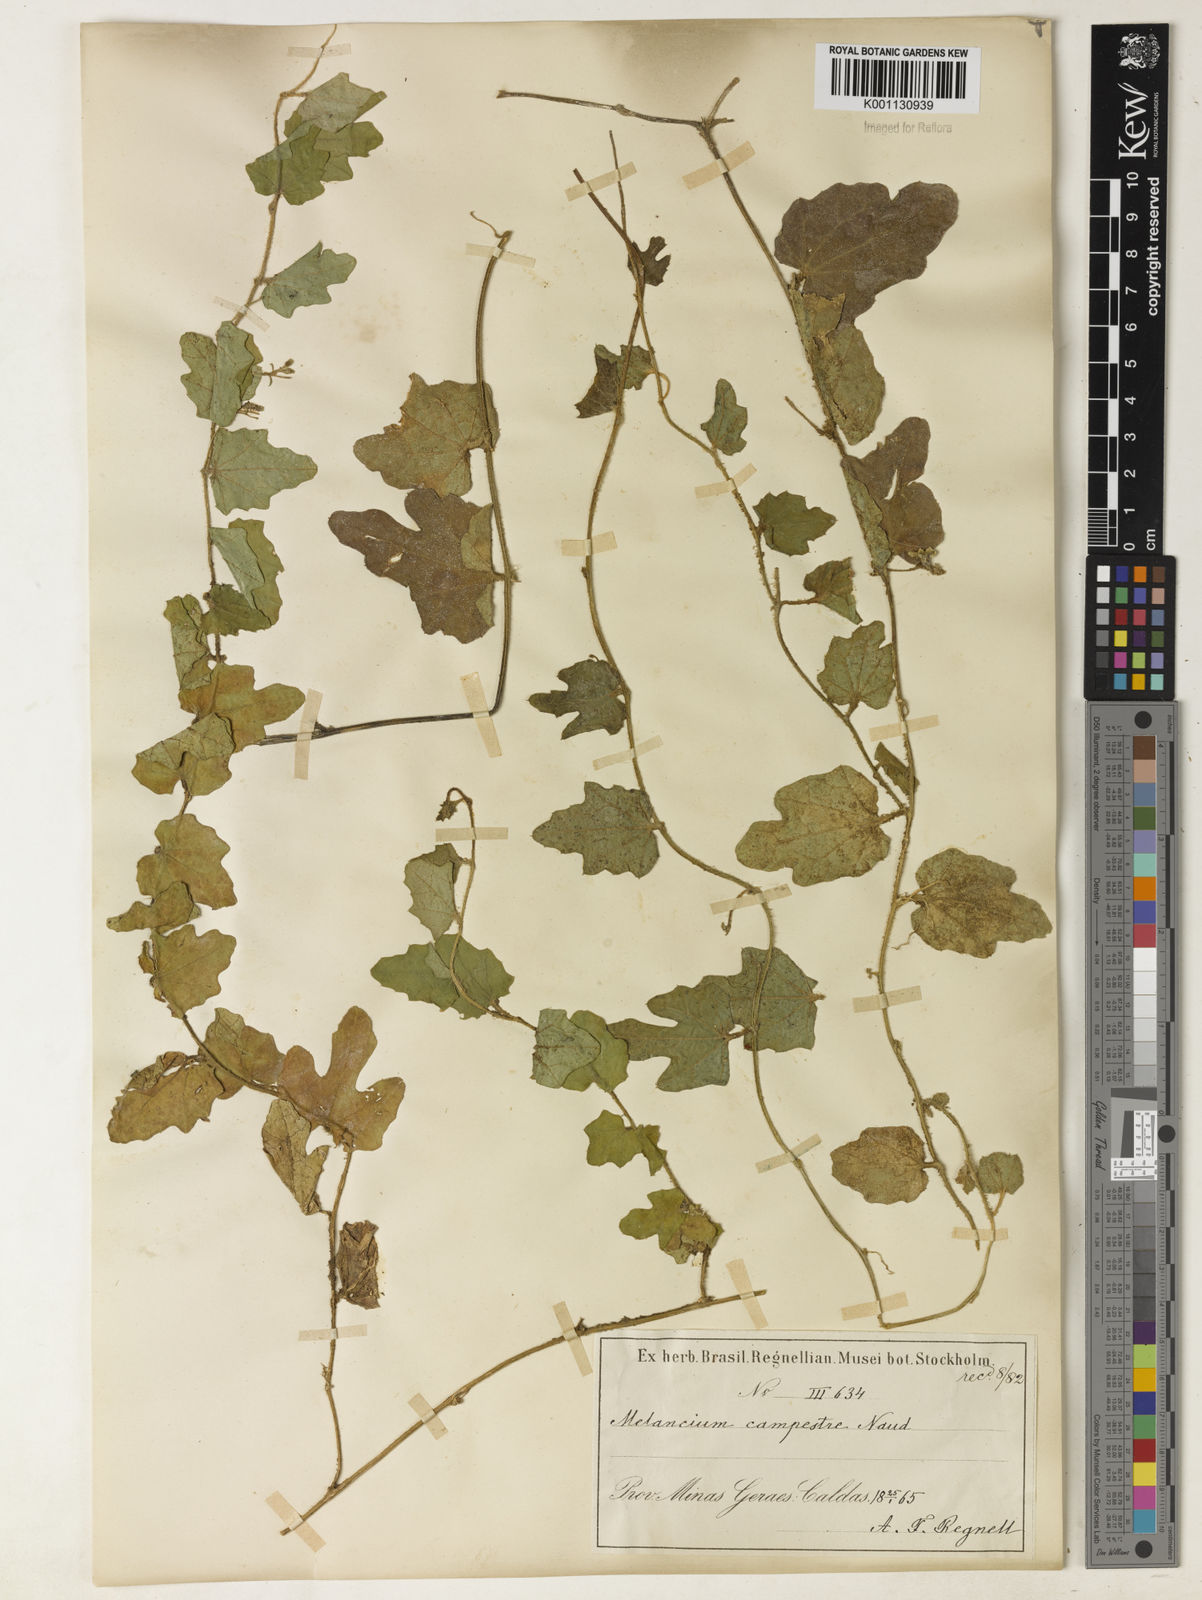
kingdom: Plantae
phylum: Tracheophyta
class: Magnoliopsida
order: Cucurbitales
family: Cucurbitaceae
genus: Melothria
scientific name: Melothria campestris
